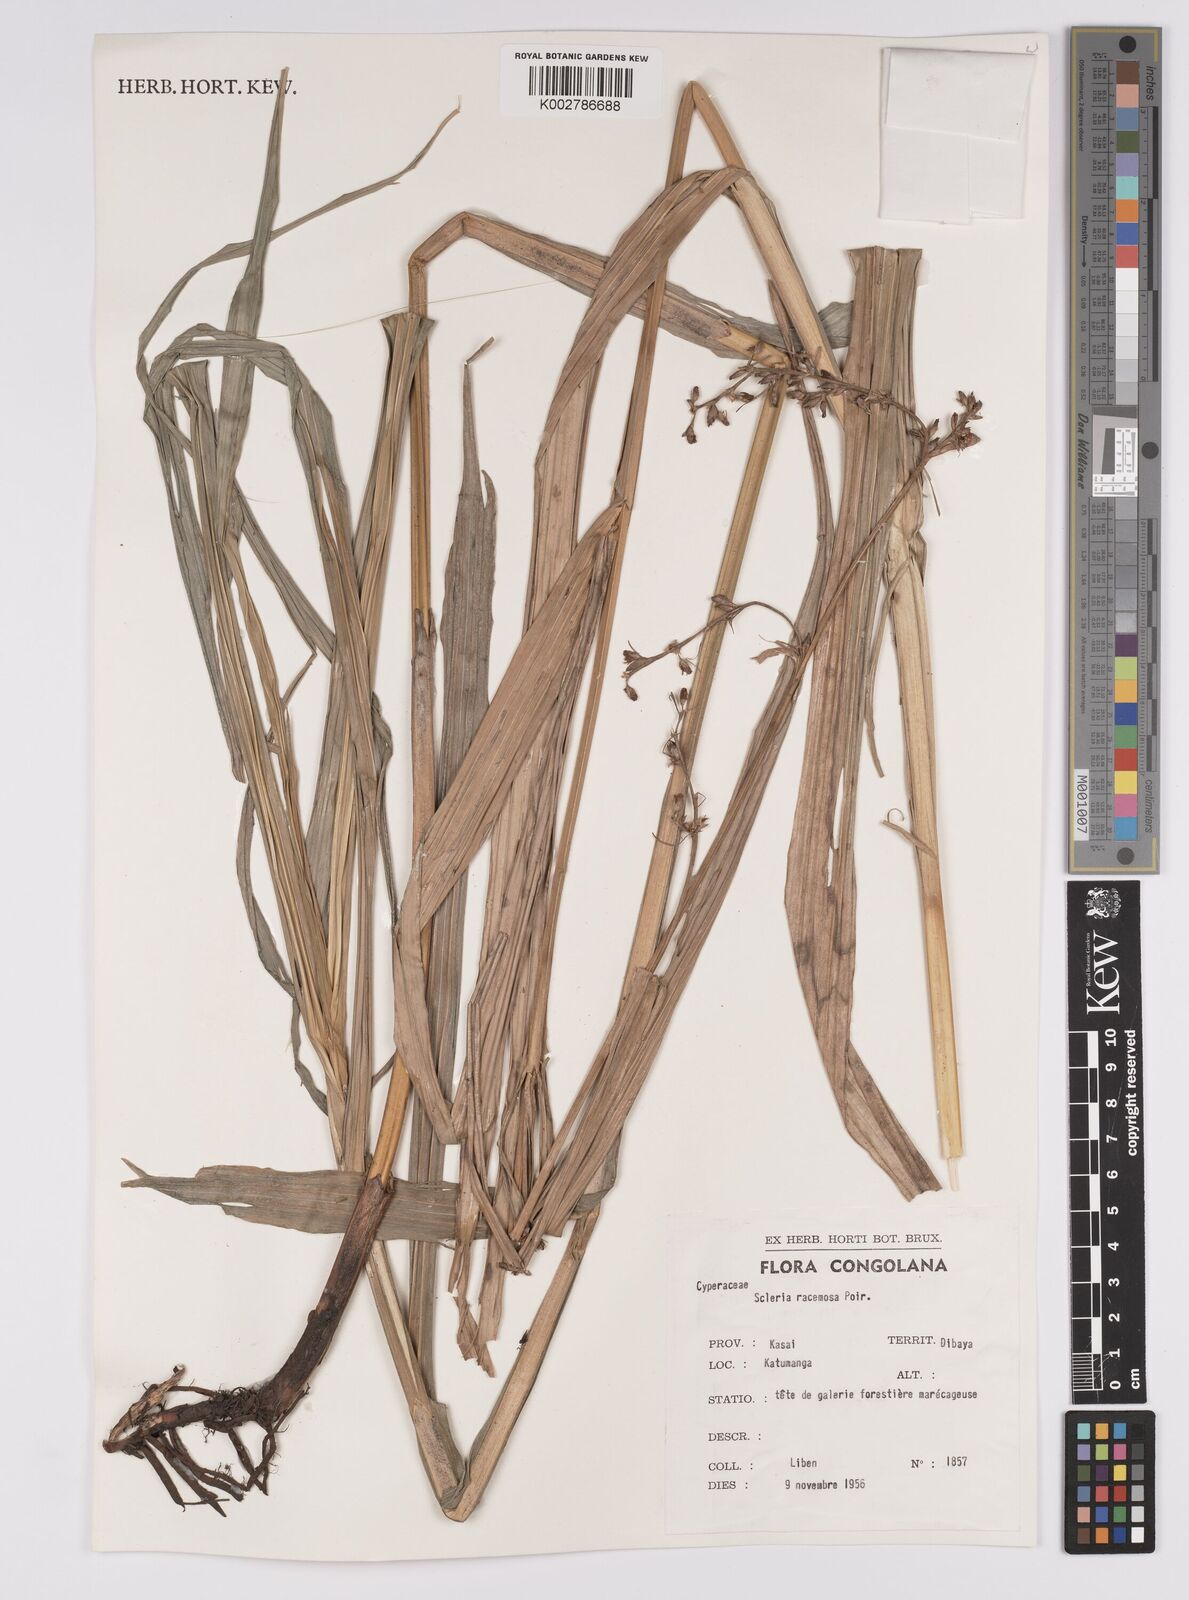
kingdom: Plantae
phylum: Tracheophyta
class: Liliopsida
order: Poales
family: Cyperaceae
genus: Scleria
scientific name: Scleria racemosa
